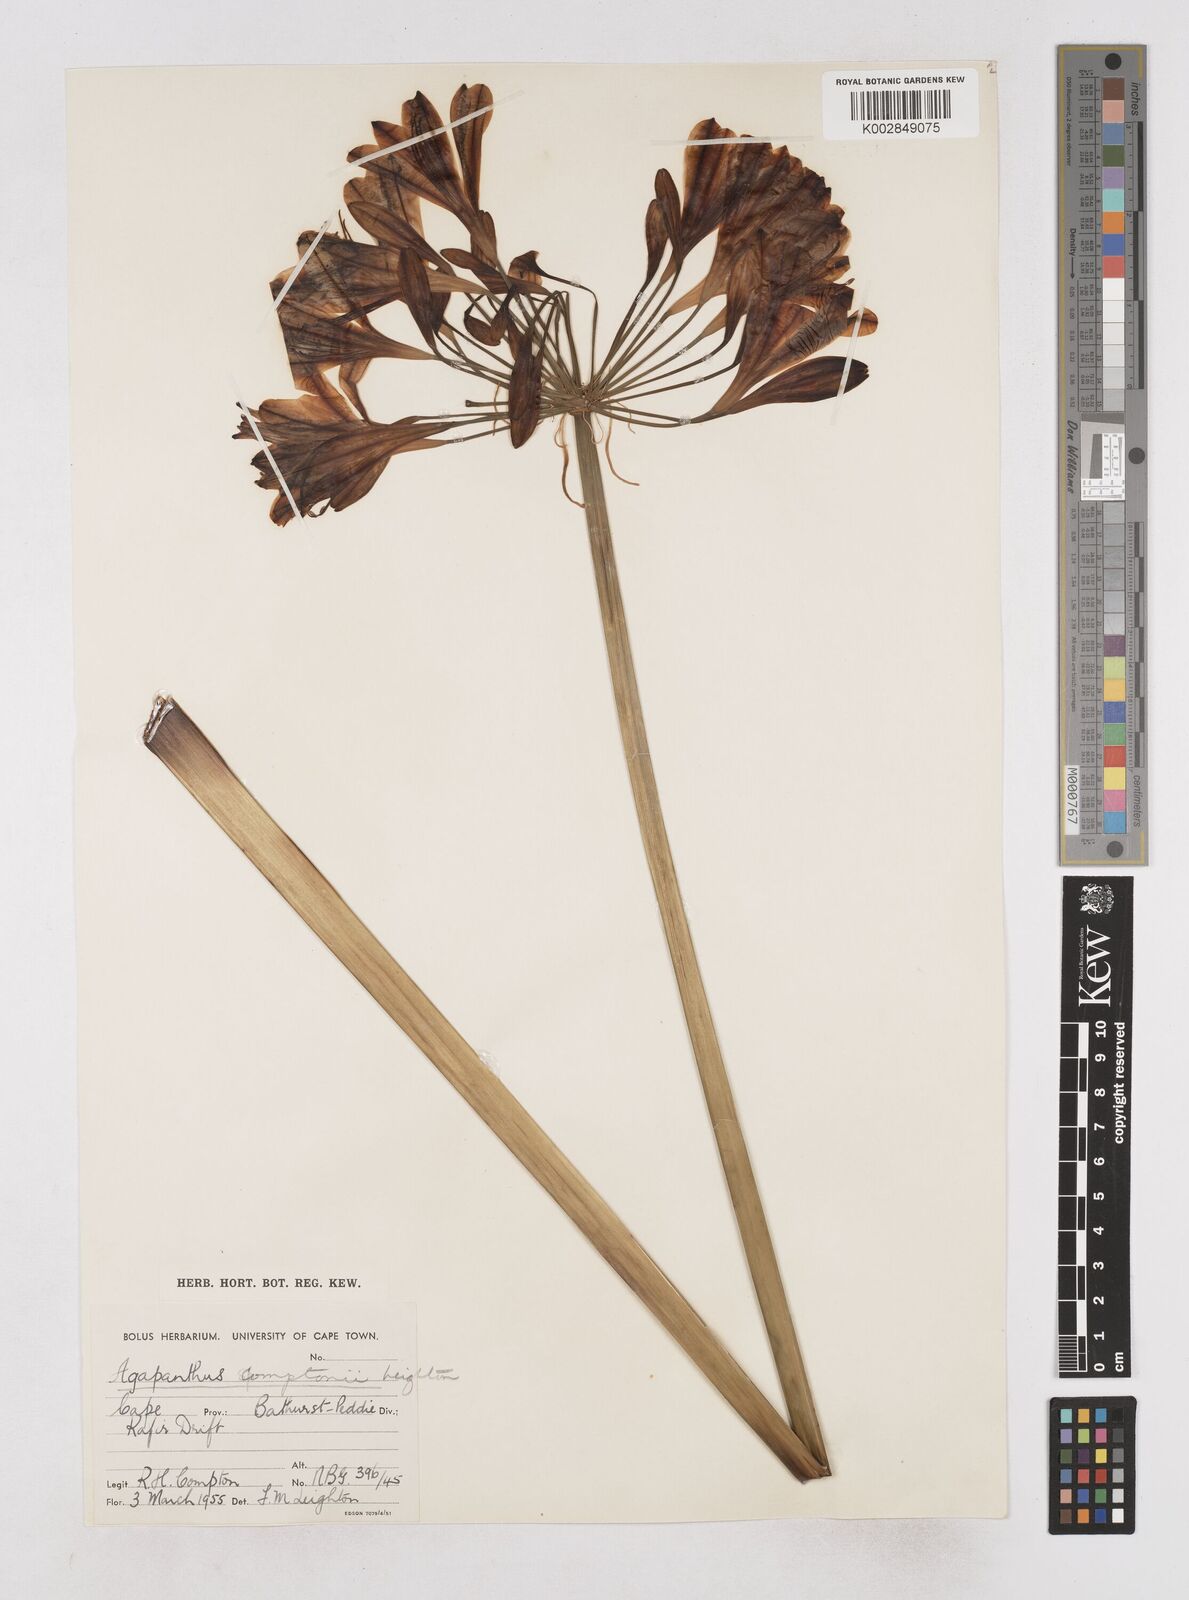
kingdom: Plantae
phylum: Tracheophyta
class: Liliopsida
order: Asparagales
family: Amaryllidaceae
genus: Agapanthus
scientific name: Agapanthus praecox
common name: African-lily
